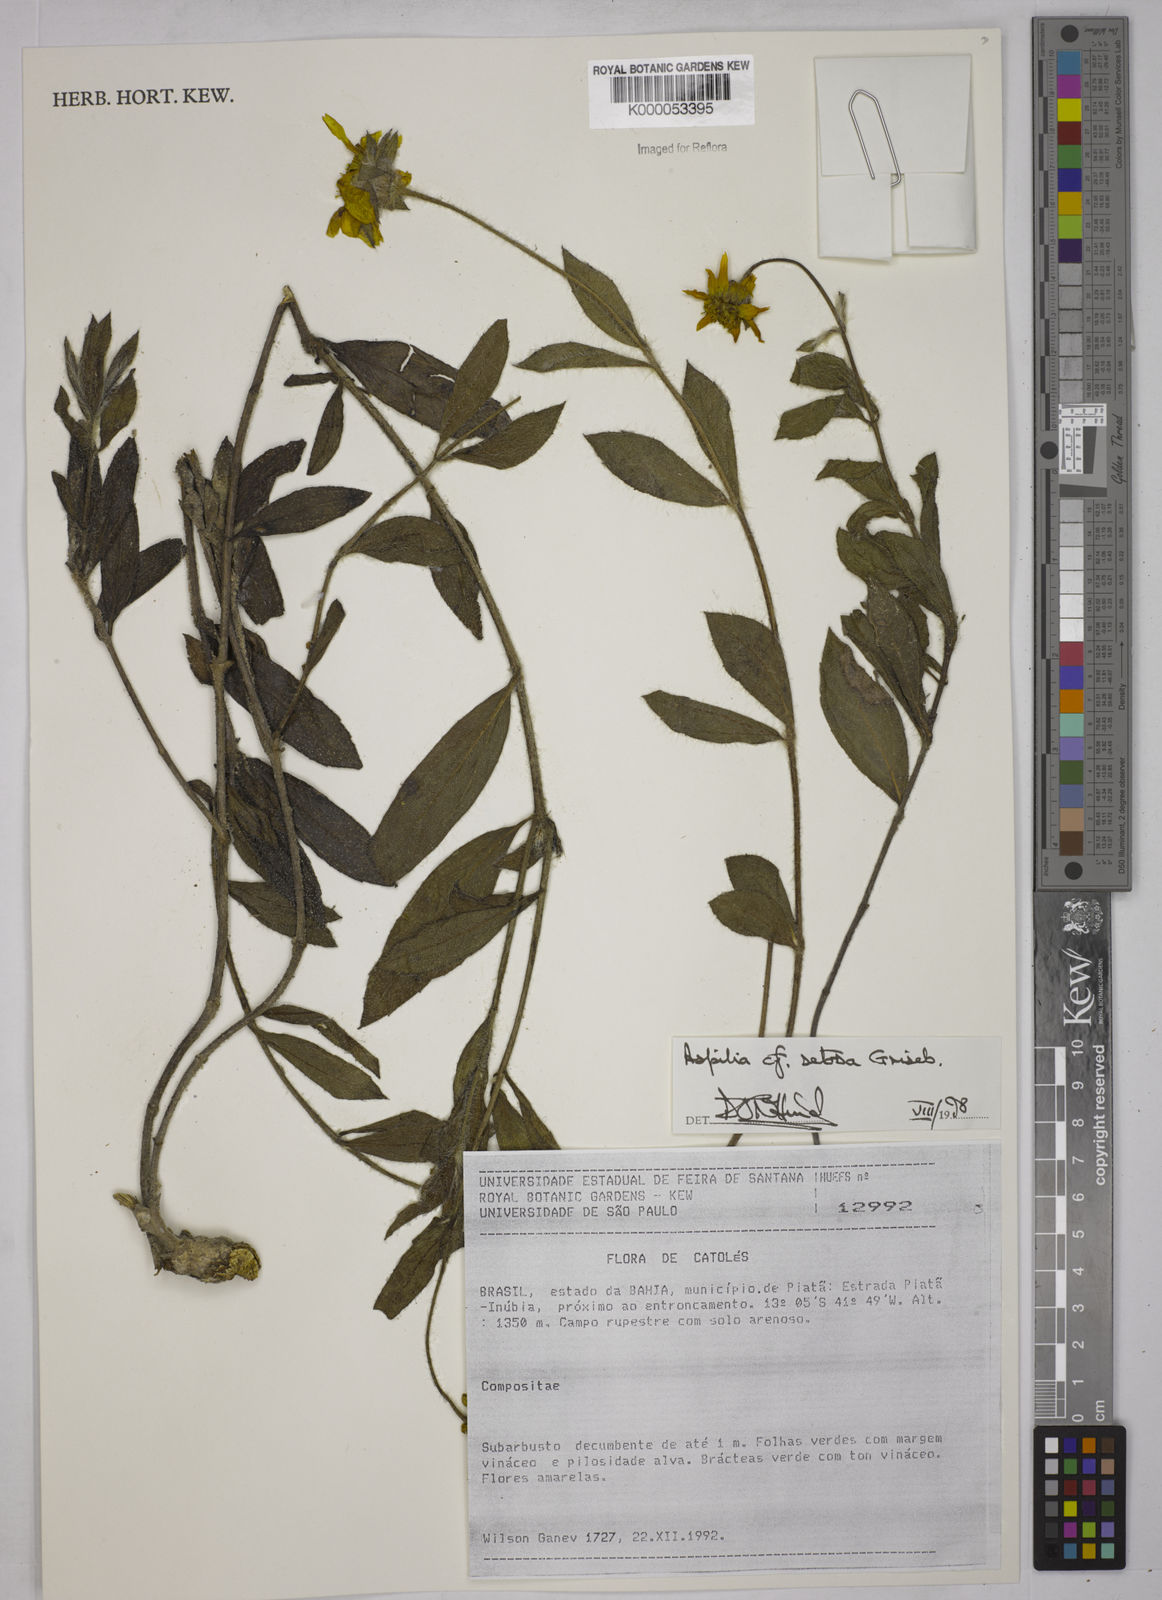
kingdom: Plantae
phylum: Tracheophyta
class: Magnoliopsida
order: Asterales
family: Asteraceae
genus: Wedelia
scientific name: Wedelia montevidensis
